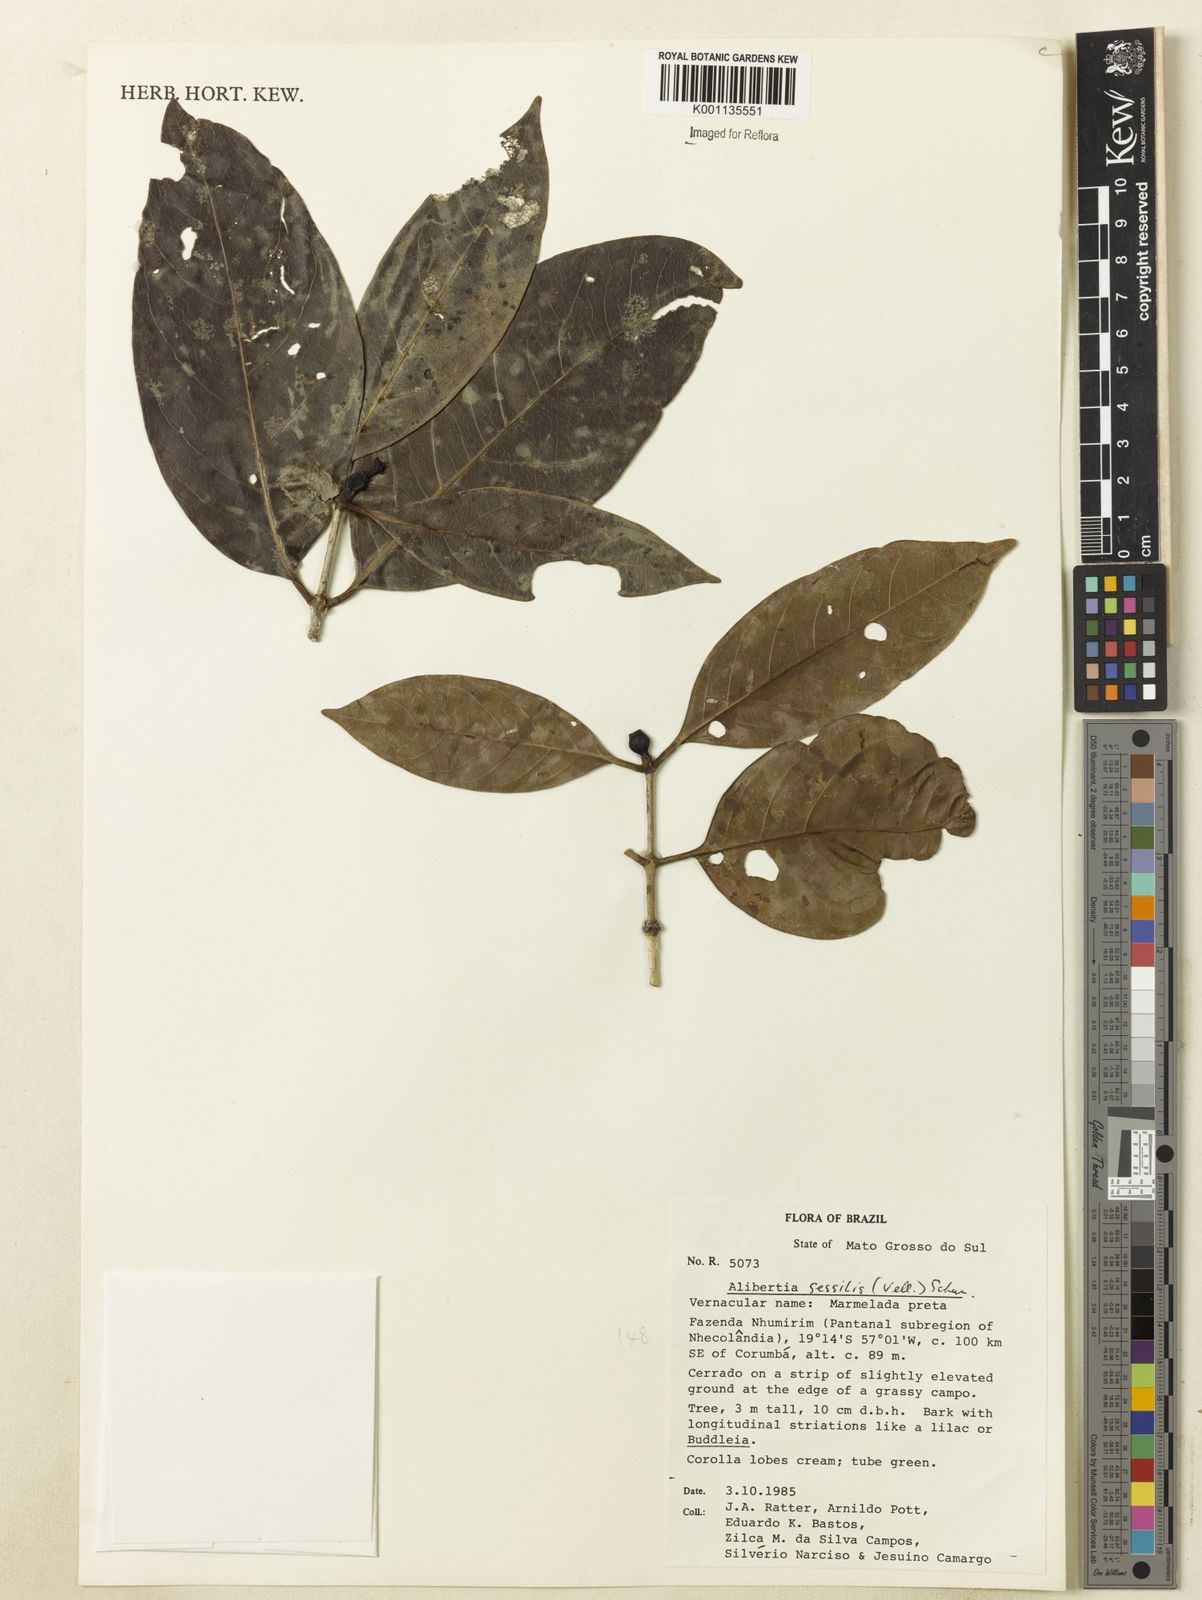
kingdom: Plantae
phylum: Tracheophyta
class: Magnoliopsida
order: Gentianales
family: Rubiaceae
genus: Cordiera
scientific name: Cordiera sessilis
